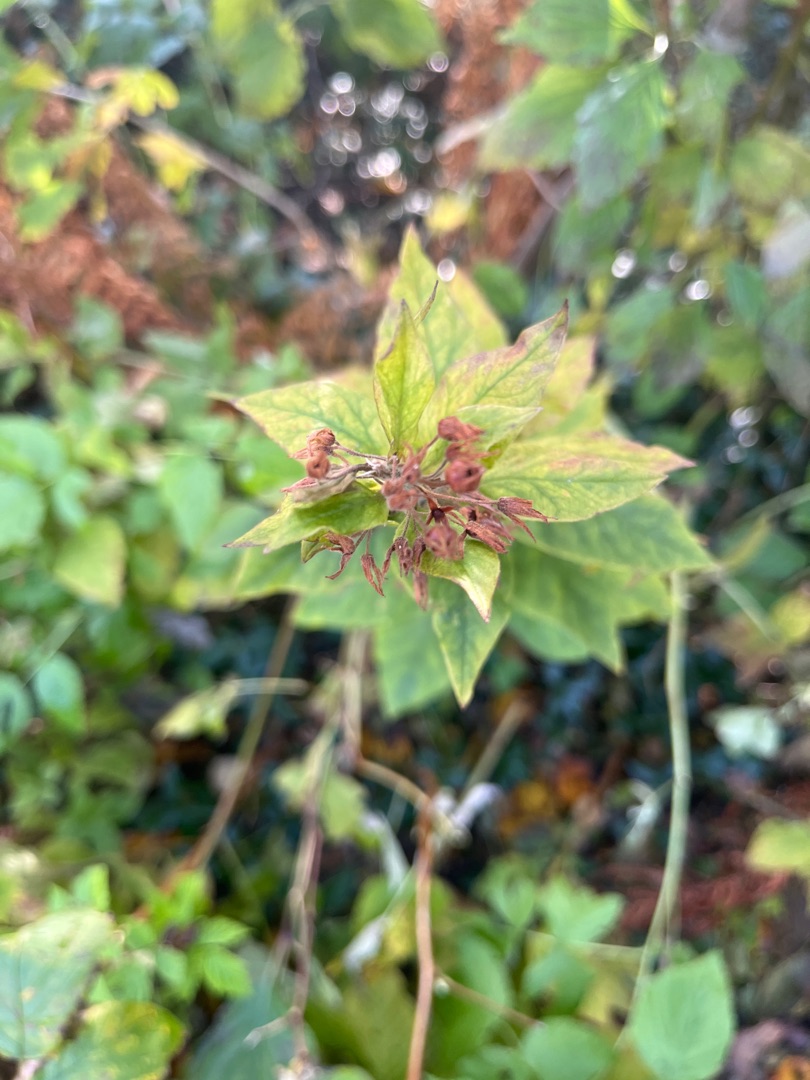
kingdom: Plantae
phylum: Tracheophyta
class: Magnoliopsida
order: Ericales
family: Primulaceae
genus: Lysimachia
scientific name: Lysimachia punctata
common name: Prikbladet fredløs
